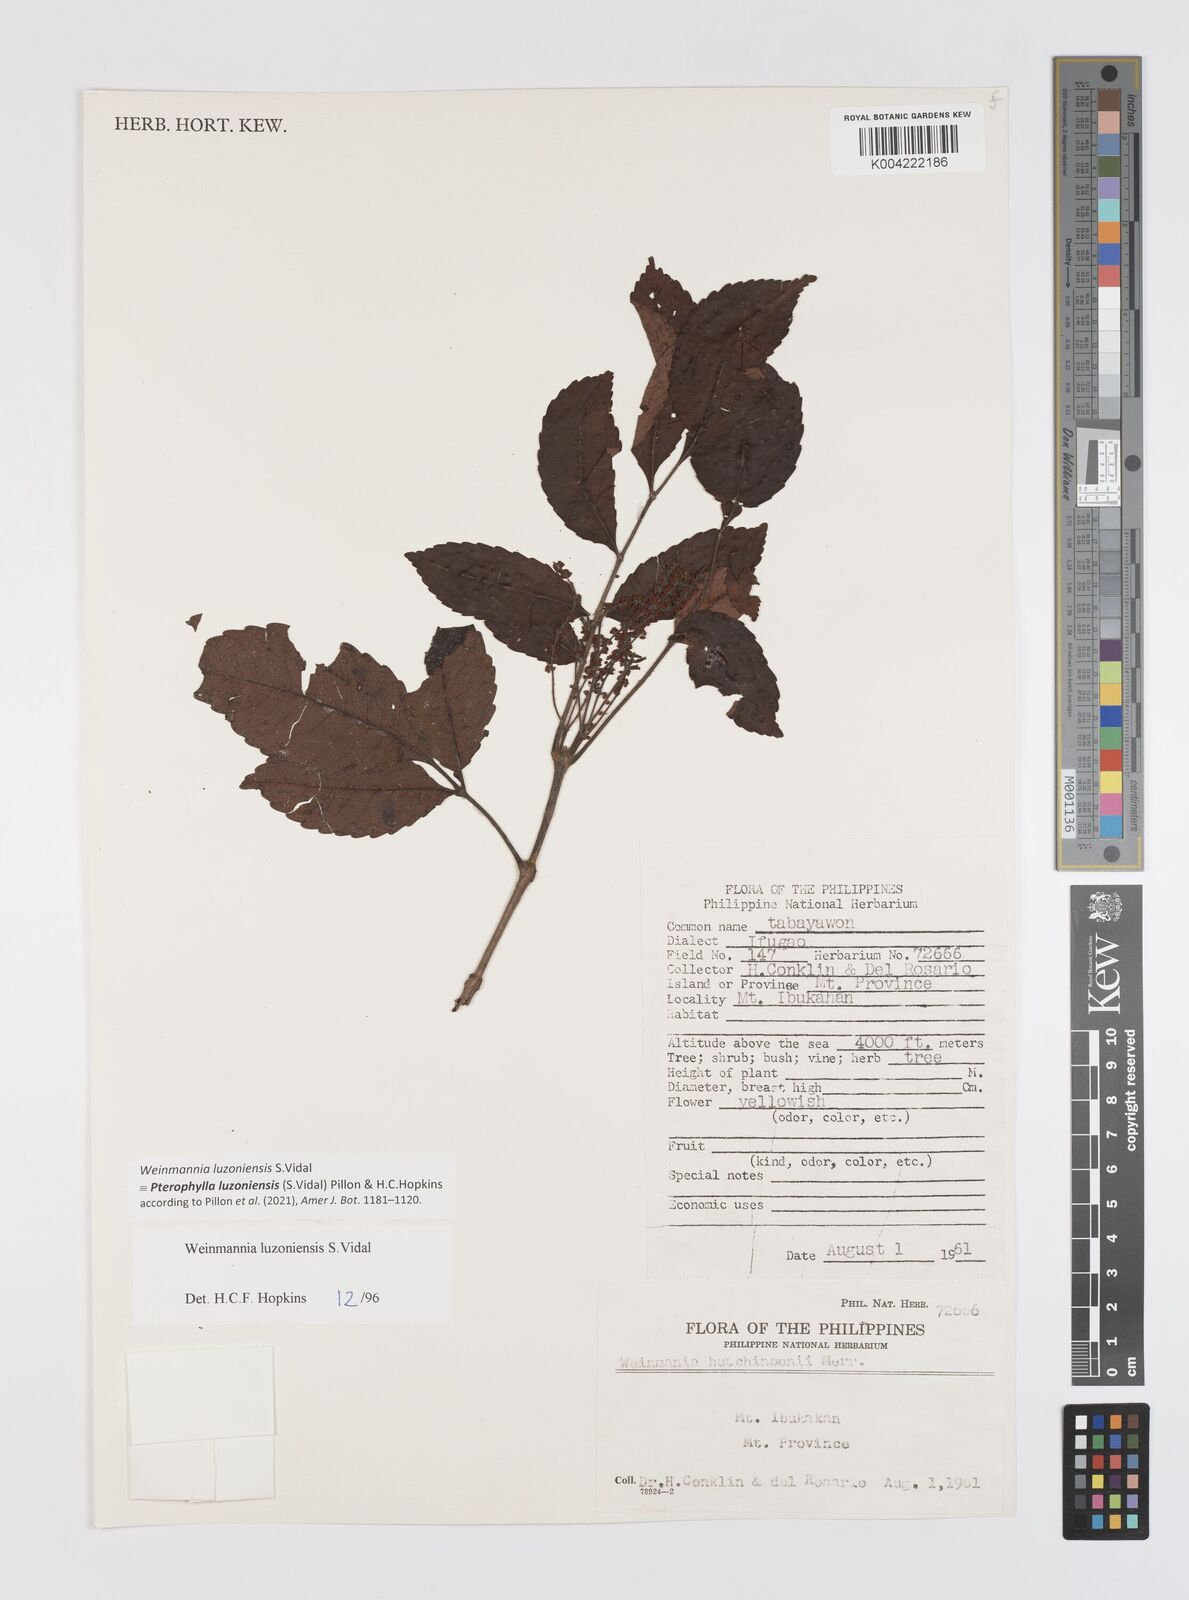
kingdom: Plantae
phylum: Tracheophyta
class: Magnoliopsida
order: Oxalidales
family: Cunoniaceae
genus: Pterophylla
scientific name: Pterophylla luzoniensis
